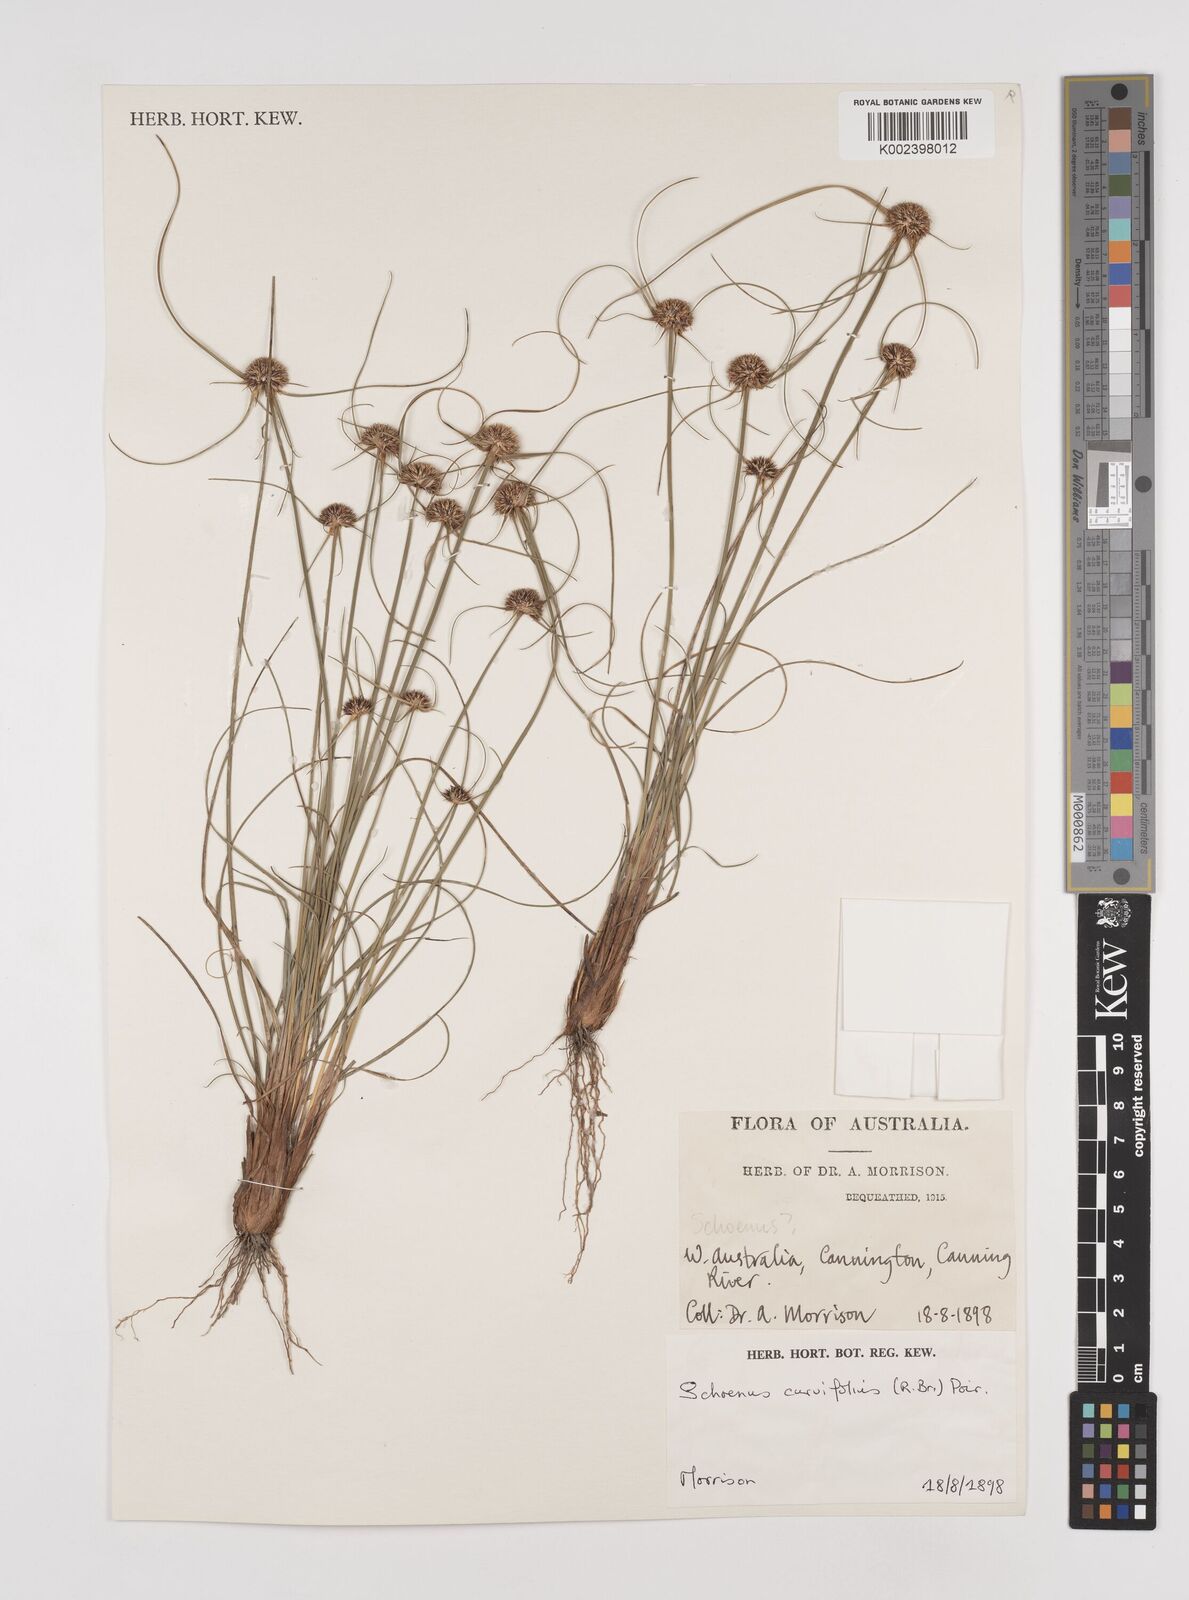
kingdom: Plantae
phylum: Tracheophyta
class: Liliopsida
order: Poales
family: Cyperaceae
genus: Schoenus
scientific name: Schoenus curvifolius
